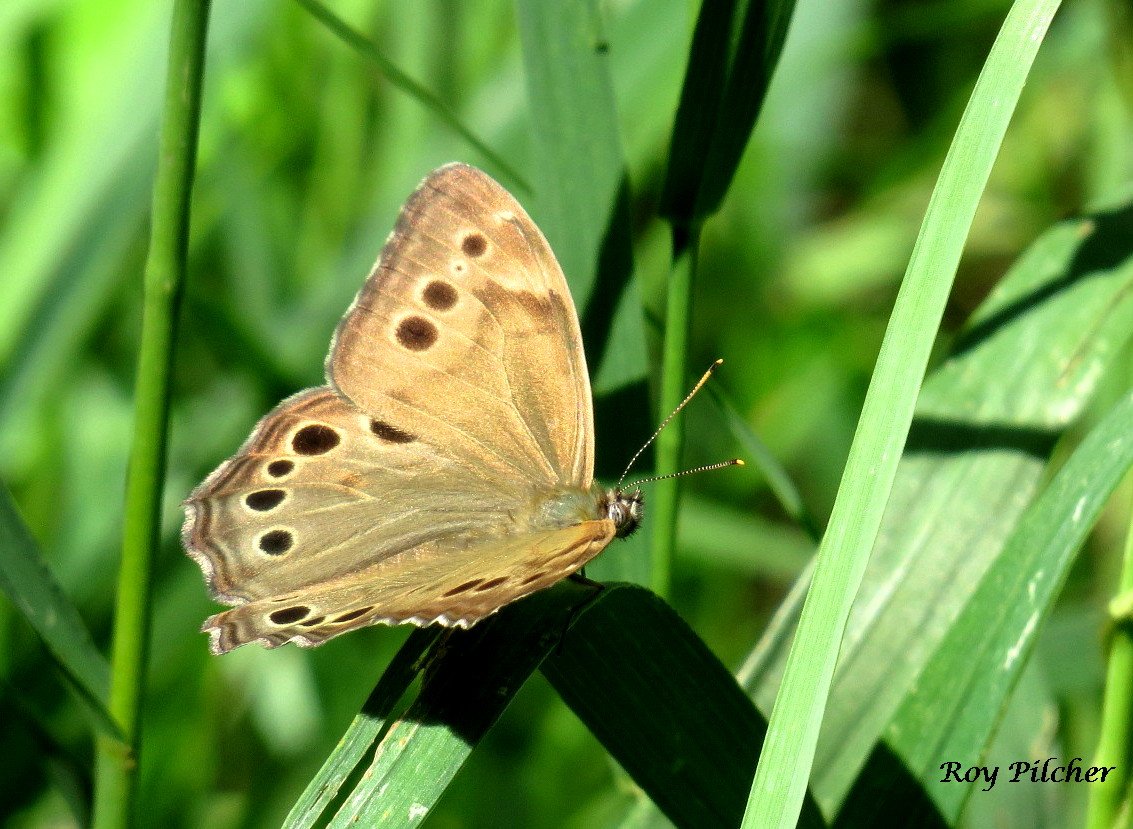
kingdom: Animalia
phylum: Arthropoda
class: Insecta
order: Lepidoptera
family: Nymphalidae
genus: Lethe
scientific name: Lethe anthedon
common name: Northern Pearly-Eye
